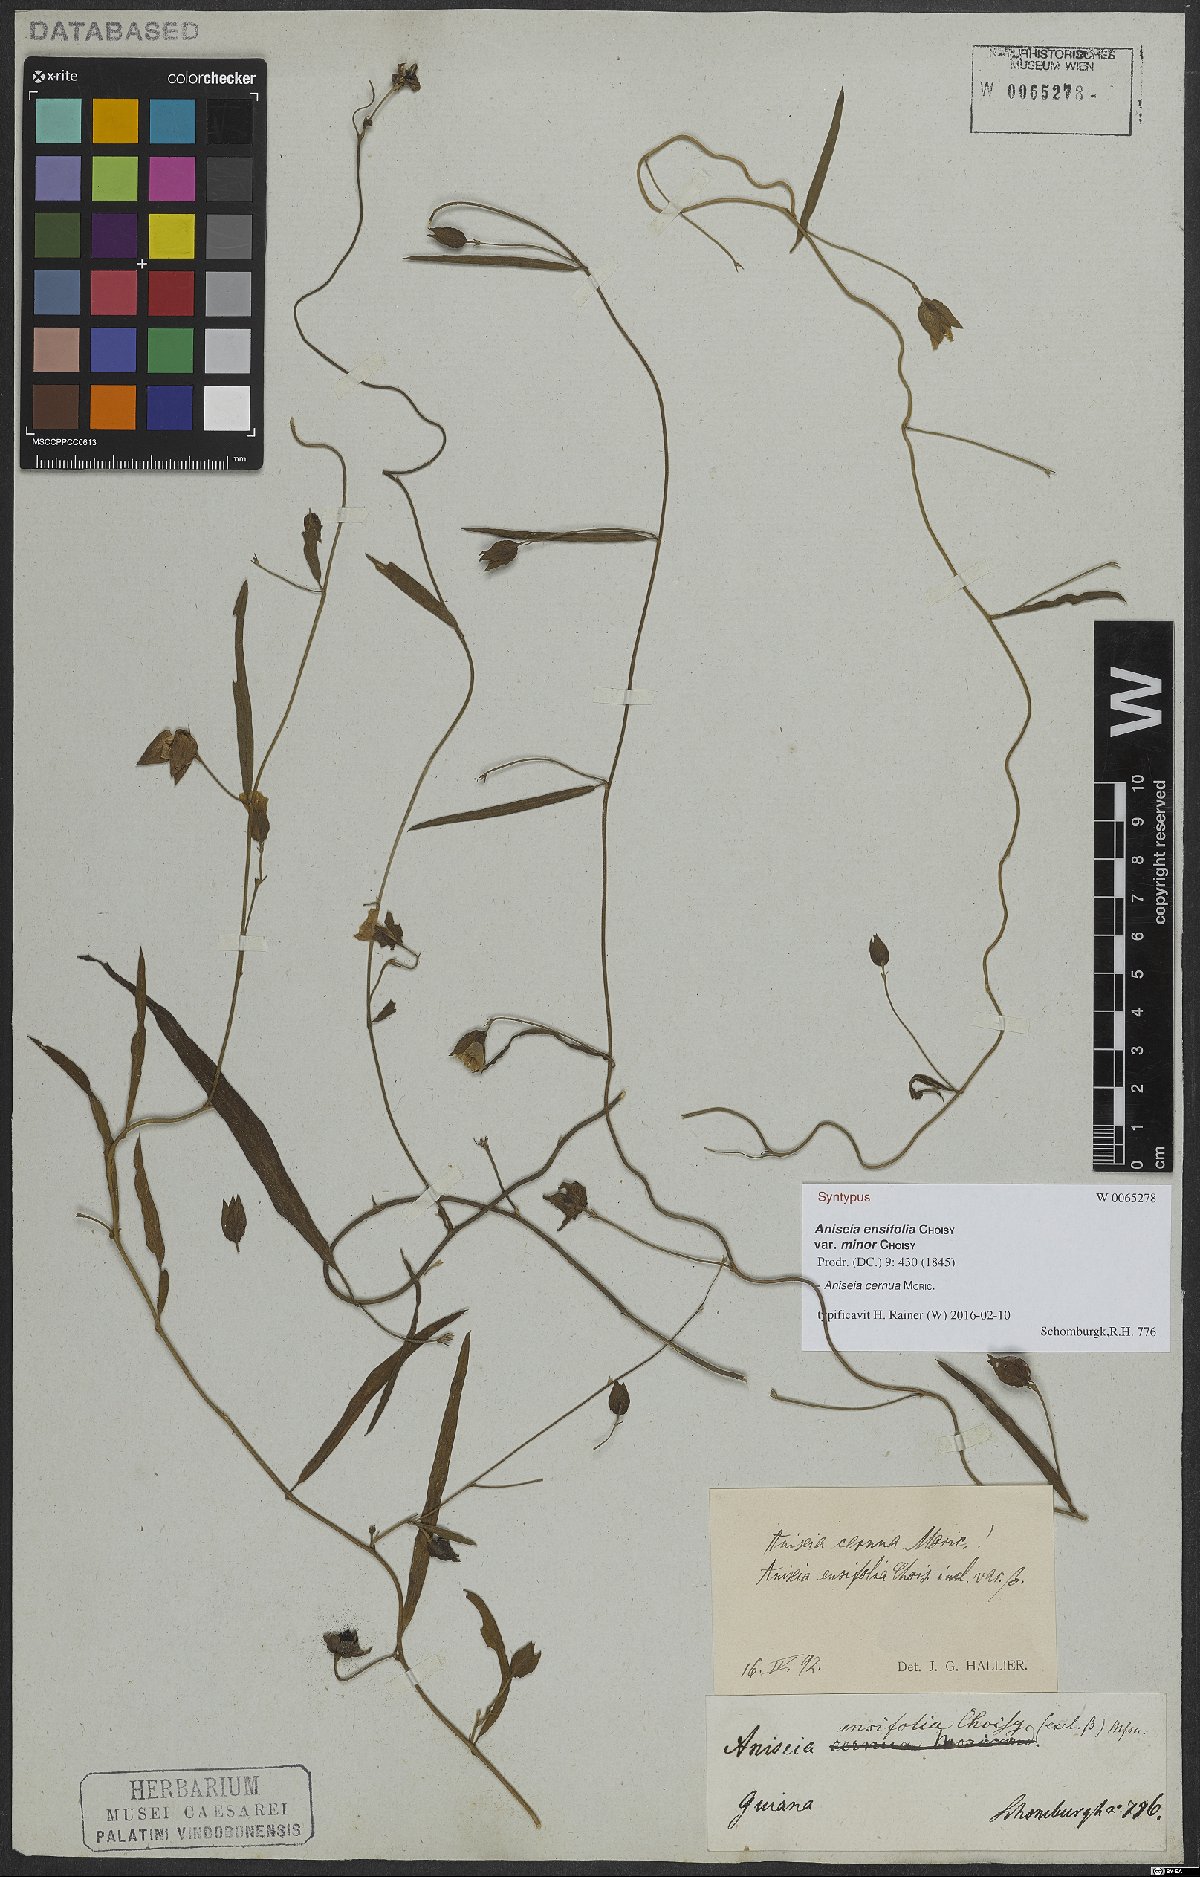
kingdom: Plantae
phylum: Tracheophyta
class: Magnoliopsida
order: Solanales
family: Convolvulaceae
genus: Aniseia
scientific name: Aniseia martinicensis
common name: Kulayadambu
